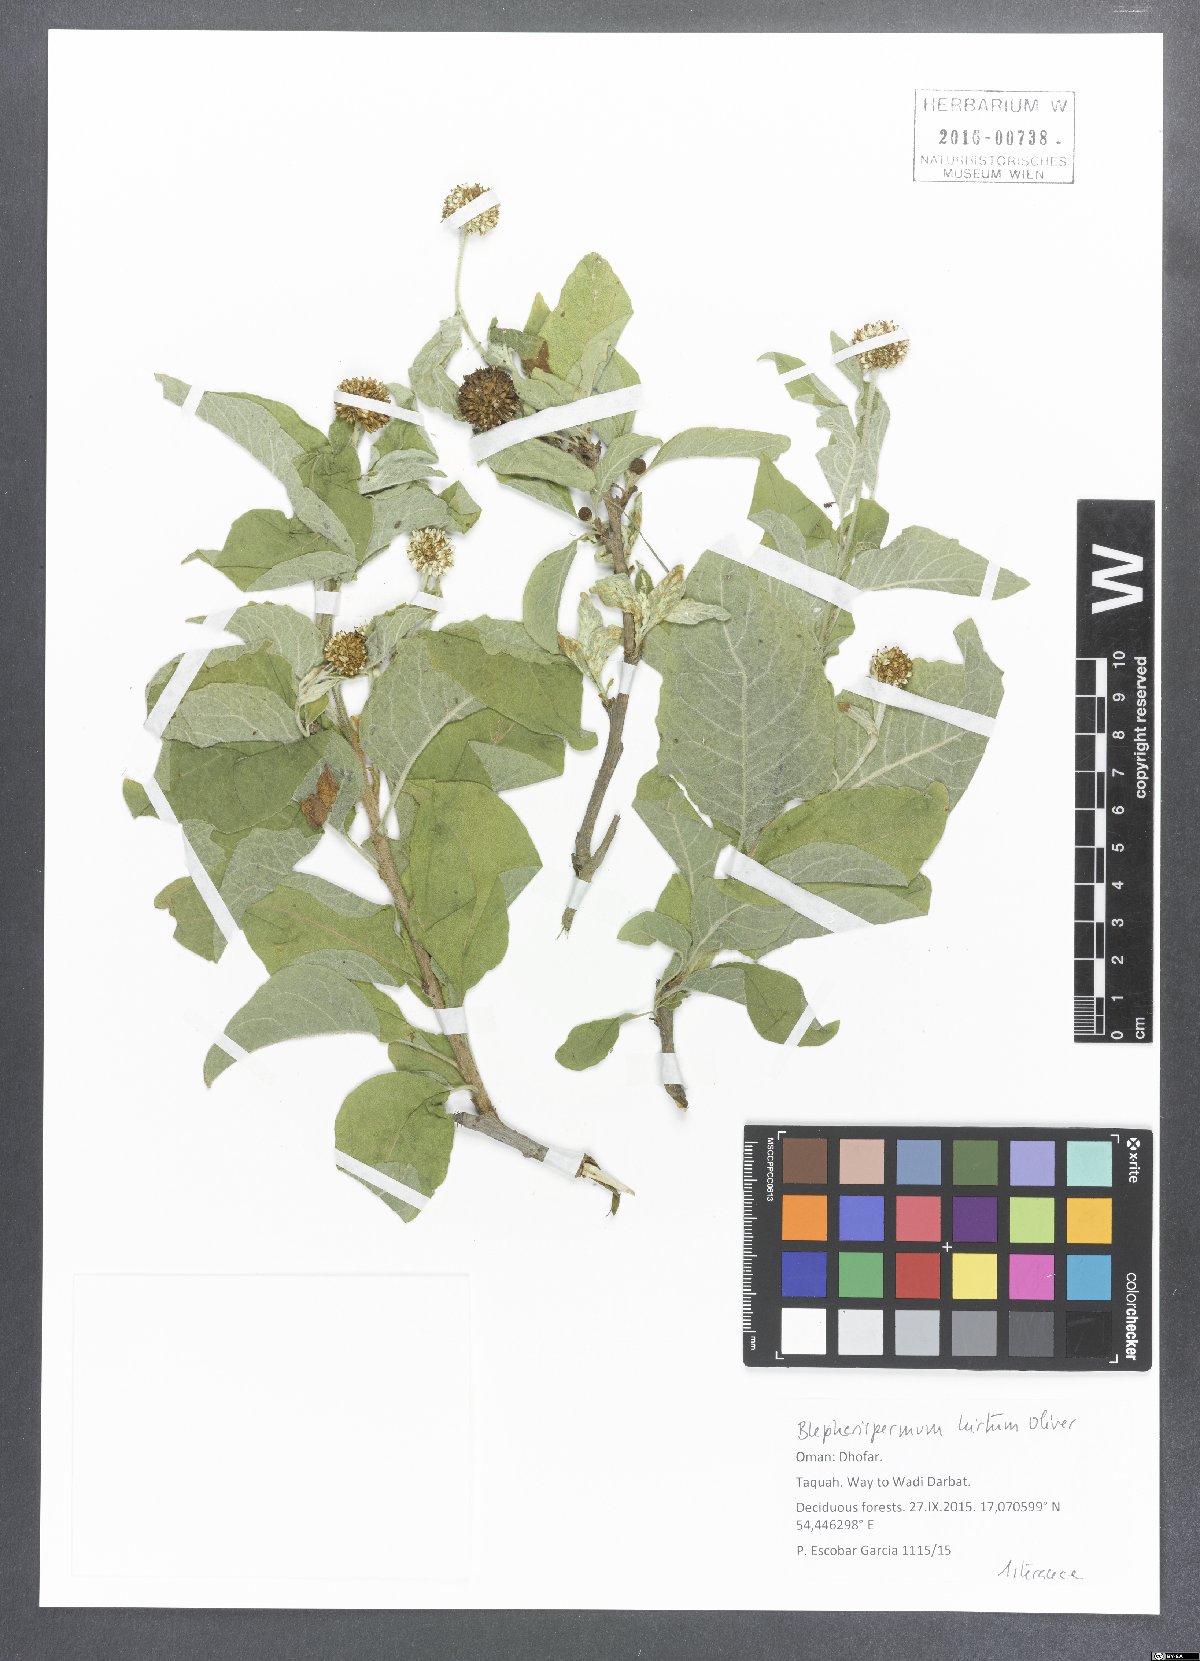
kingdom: Plantae
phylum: Tracheophyta
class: Magnoliopsida
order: Asterales
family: Asteraceae
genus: Blepharispermum
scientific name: Blepharispermum hirtum
